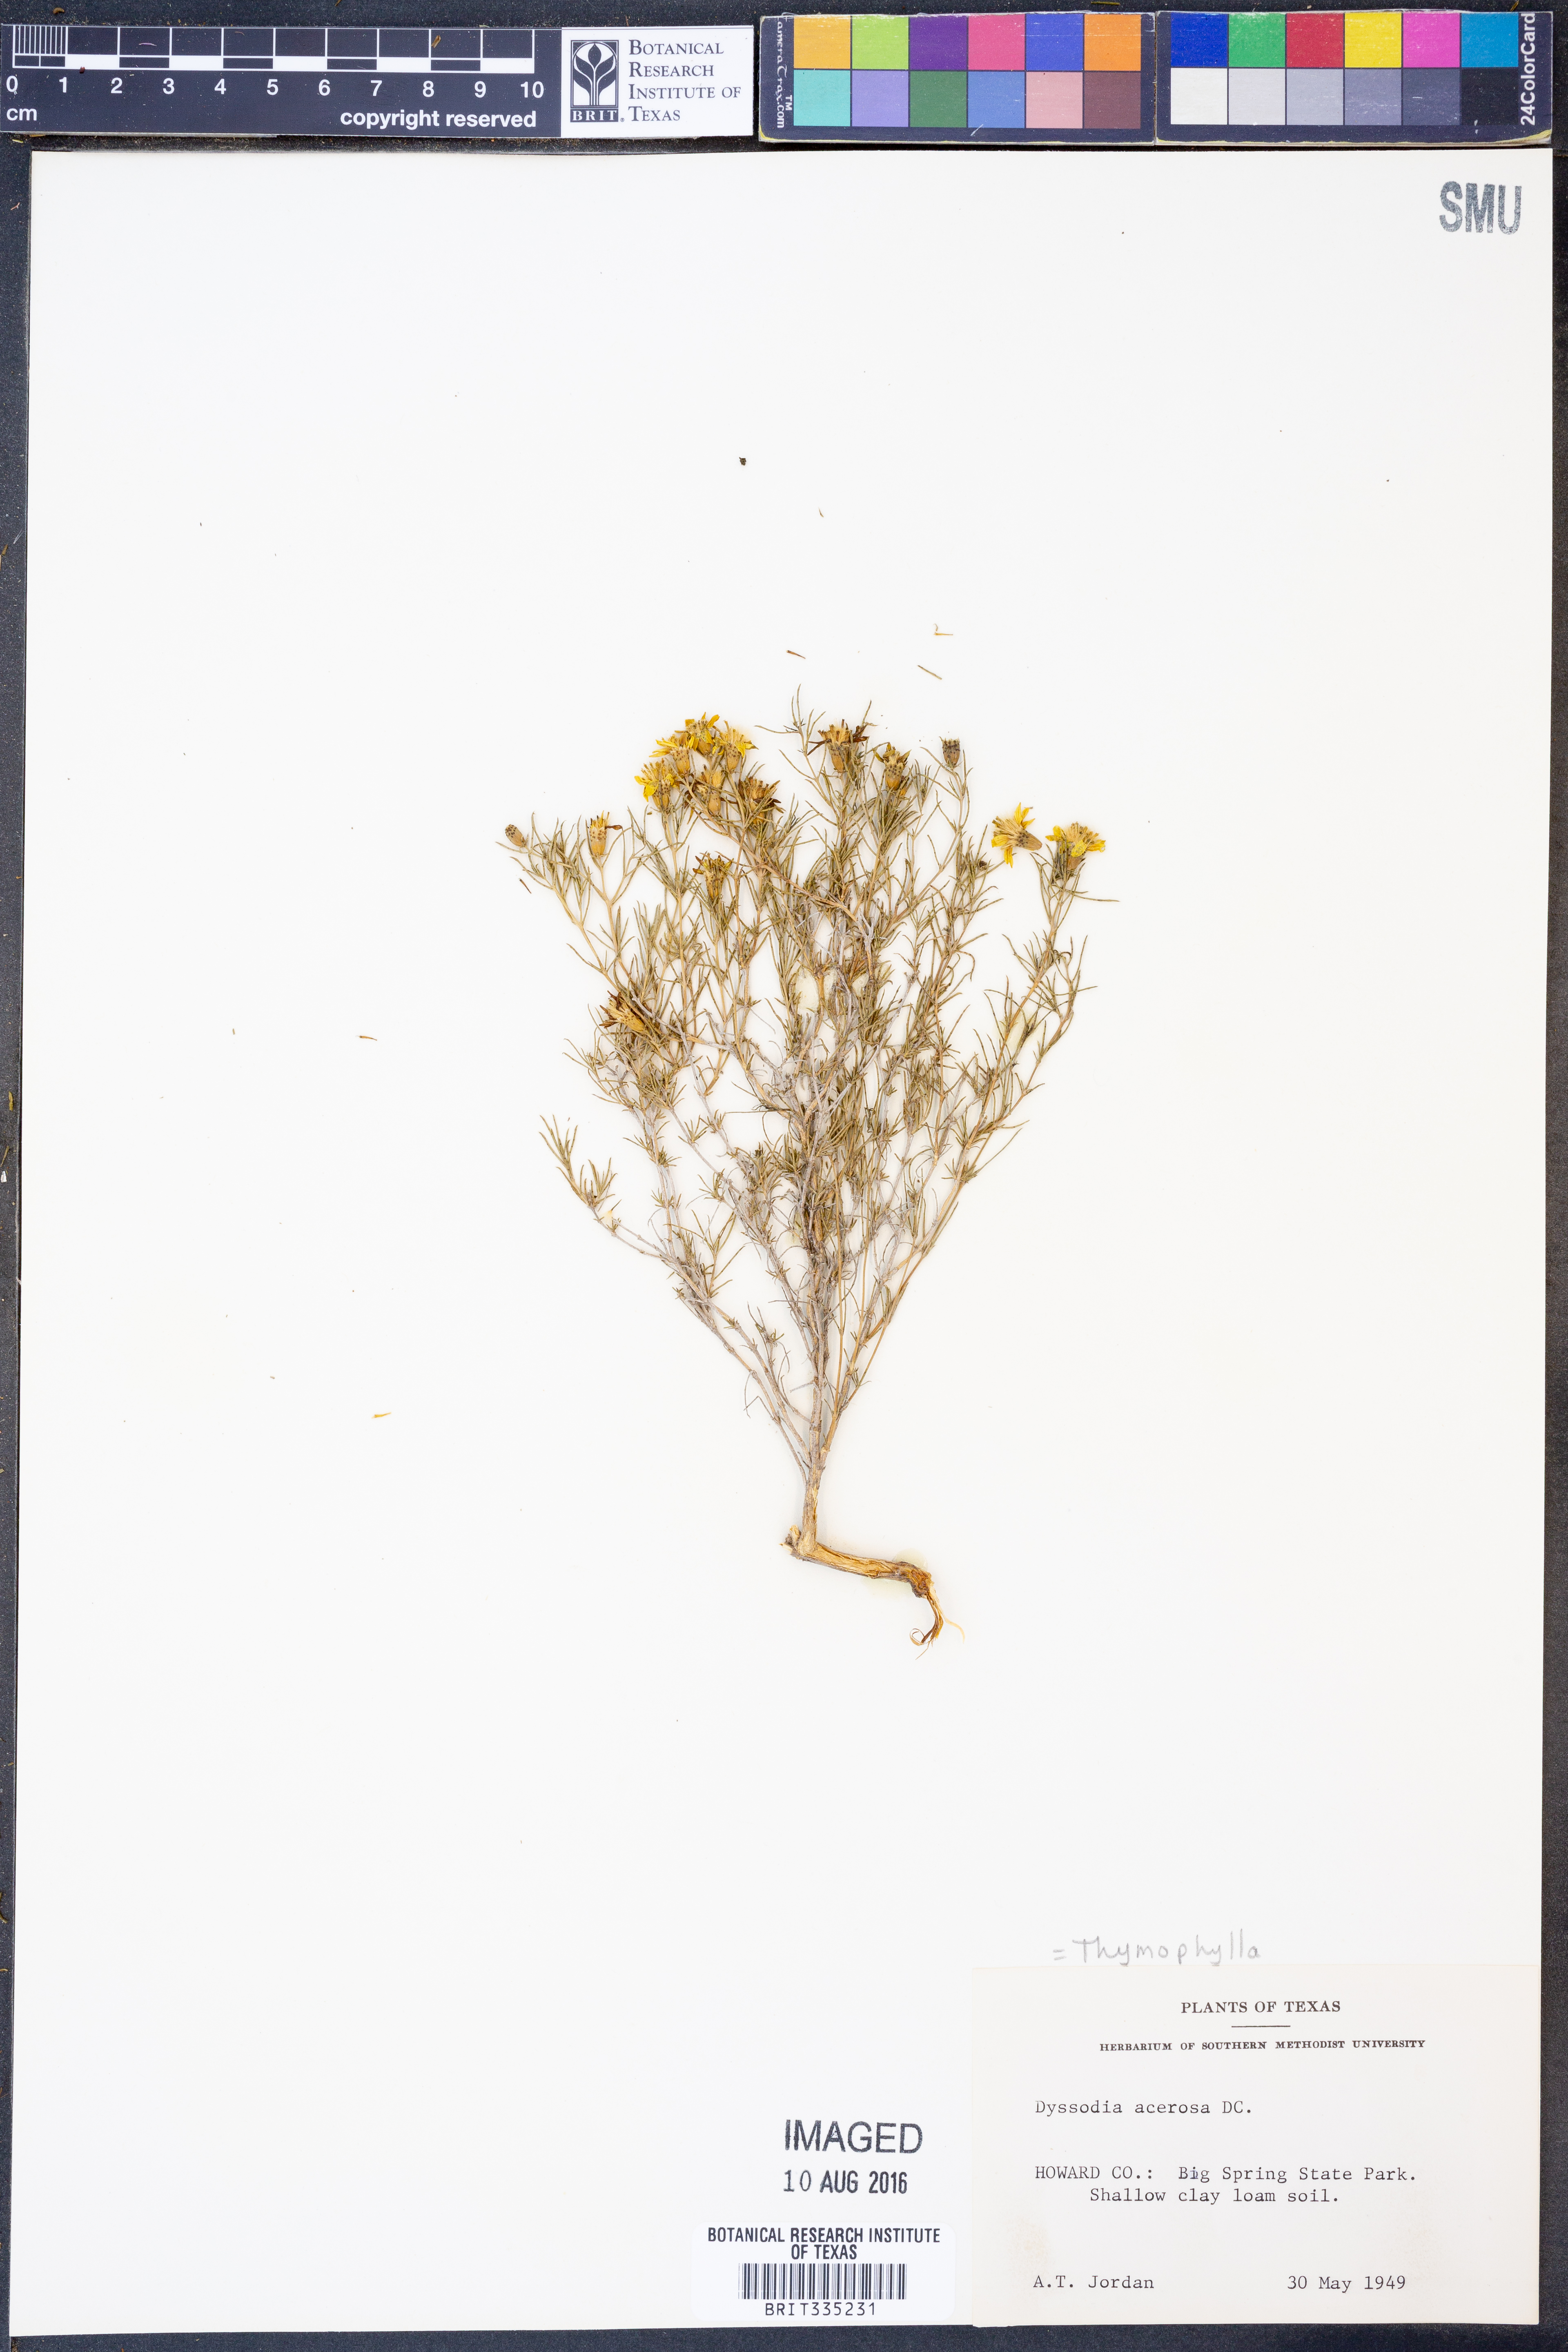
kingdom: Plantae
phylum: Tracheophyta
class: Magnoliopsida
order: Asterales
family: Asteraceae
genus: Thymophylla
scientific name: Thymophylla acerosa
